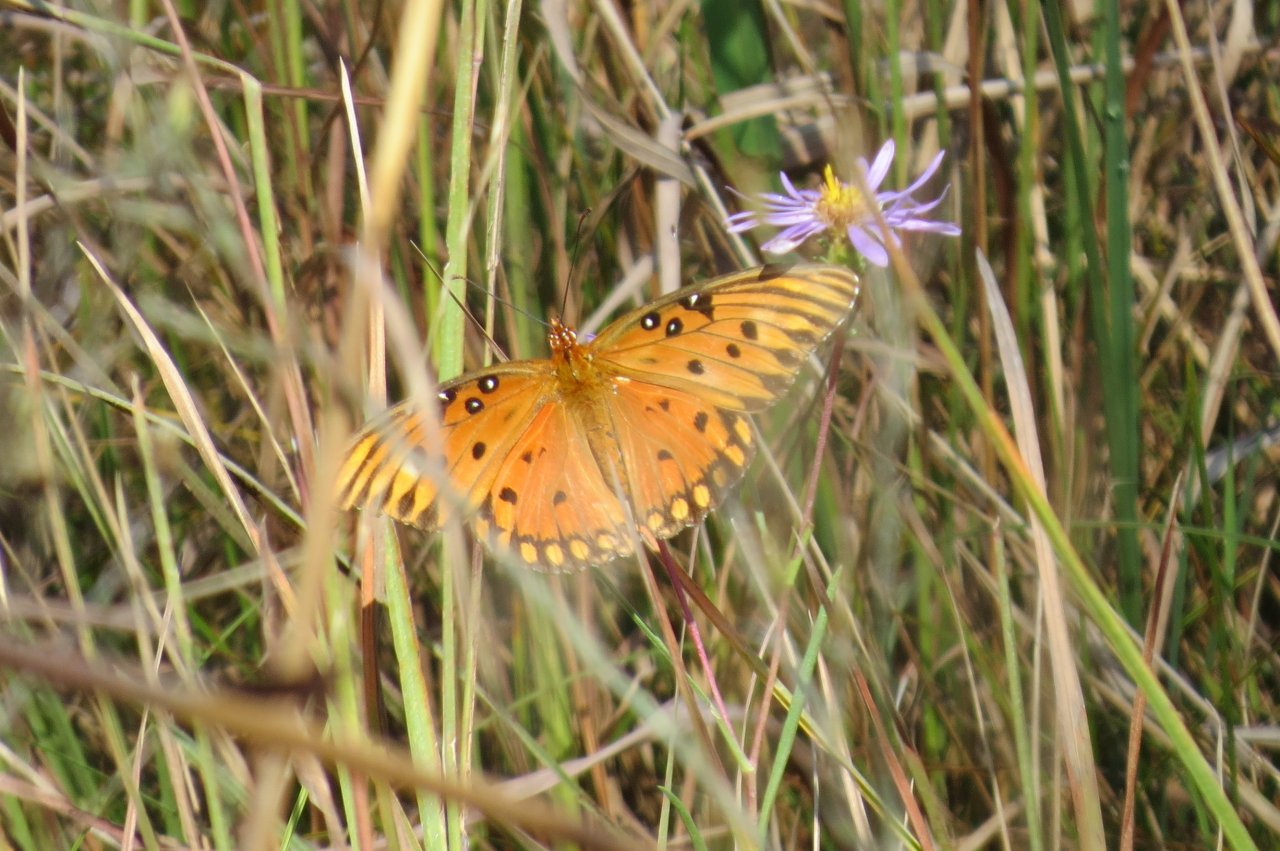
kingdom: Animalia
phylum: Arthropoda
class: Insecta
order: Lepidoptera
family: Nymphalidae
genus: Dione
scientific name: Dione vanillae
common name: Gulf Fritillary
